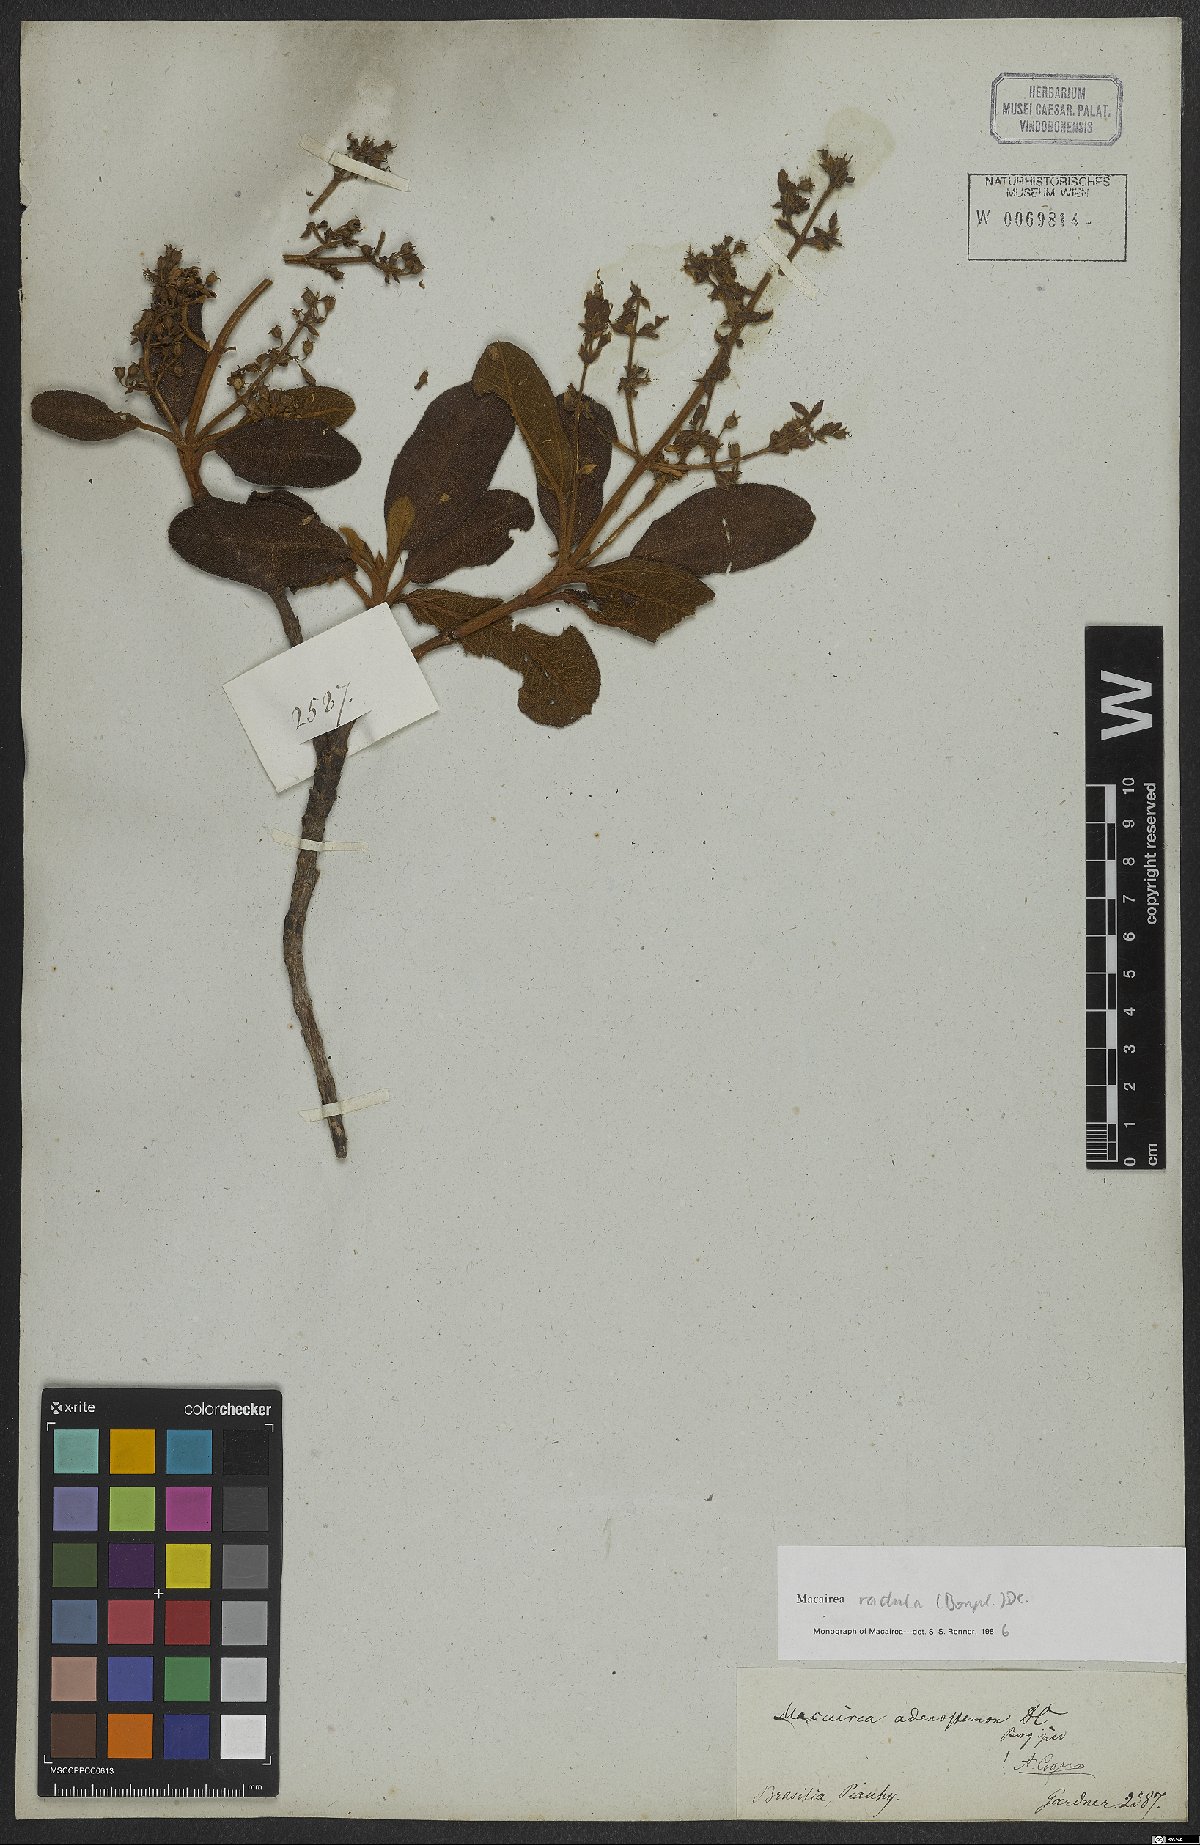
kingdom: Plantae
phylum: Tracheophyta
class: Magnoliopsida
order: Myrtales
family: Melastomataceae
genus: Macairea
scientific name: Macairea radula
